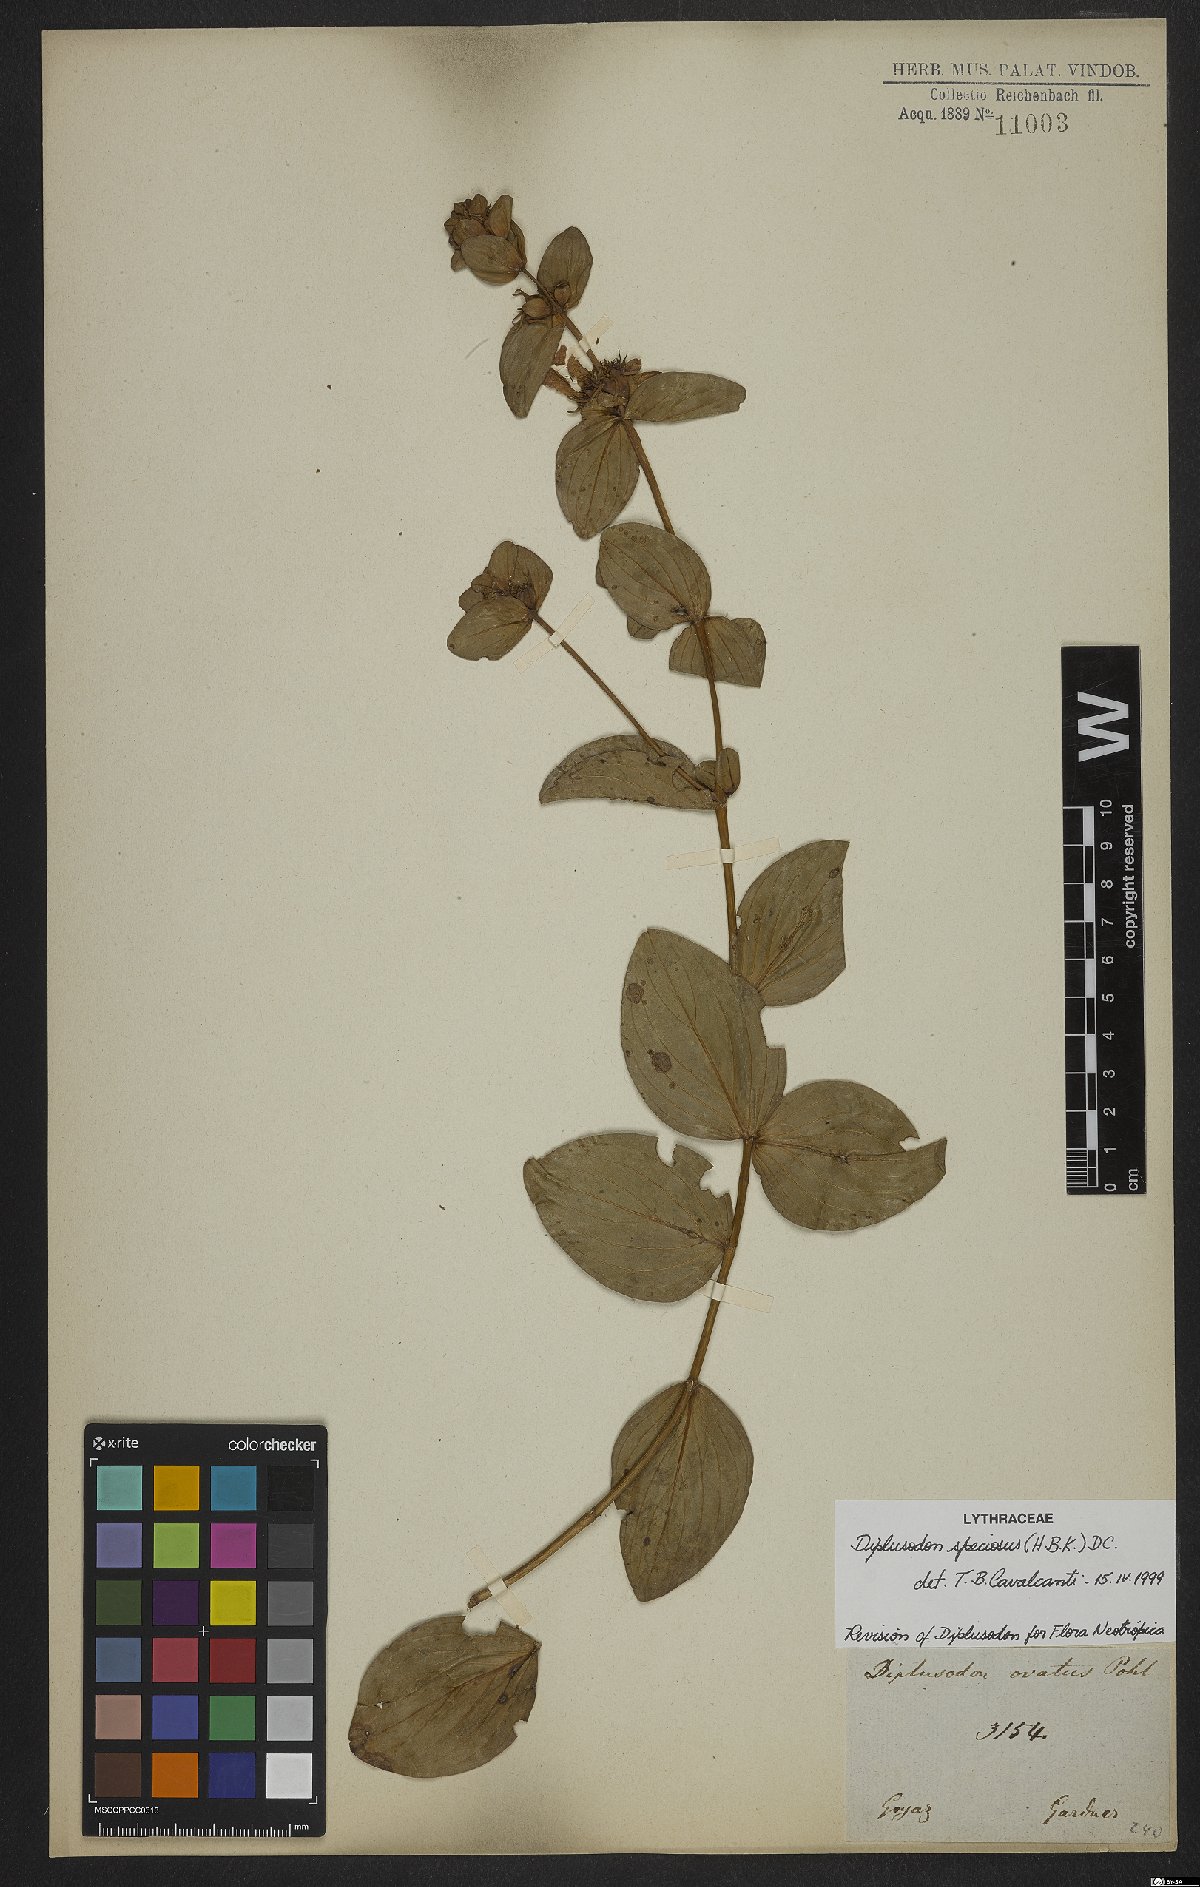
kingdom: Plantae
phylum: Tracheophyta
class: Magnoliopsida
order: Myrtales
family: Lythraceae
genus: Cuphea
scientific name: Cuphea llavea
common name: Tiny-mice
